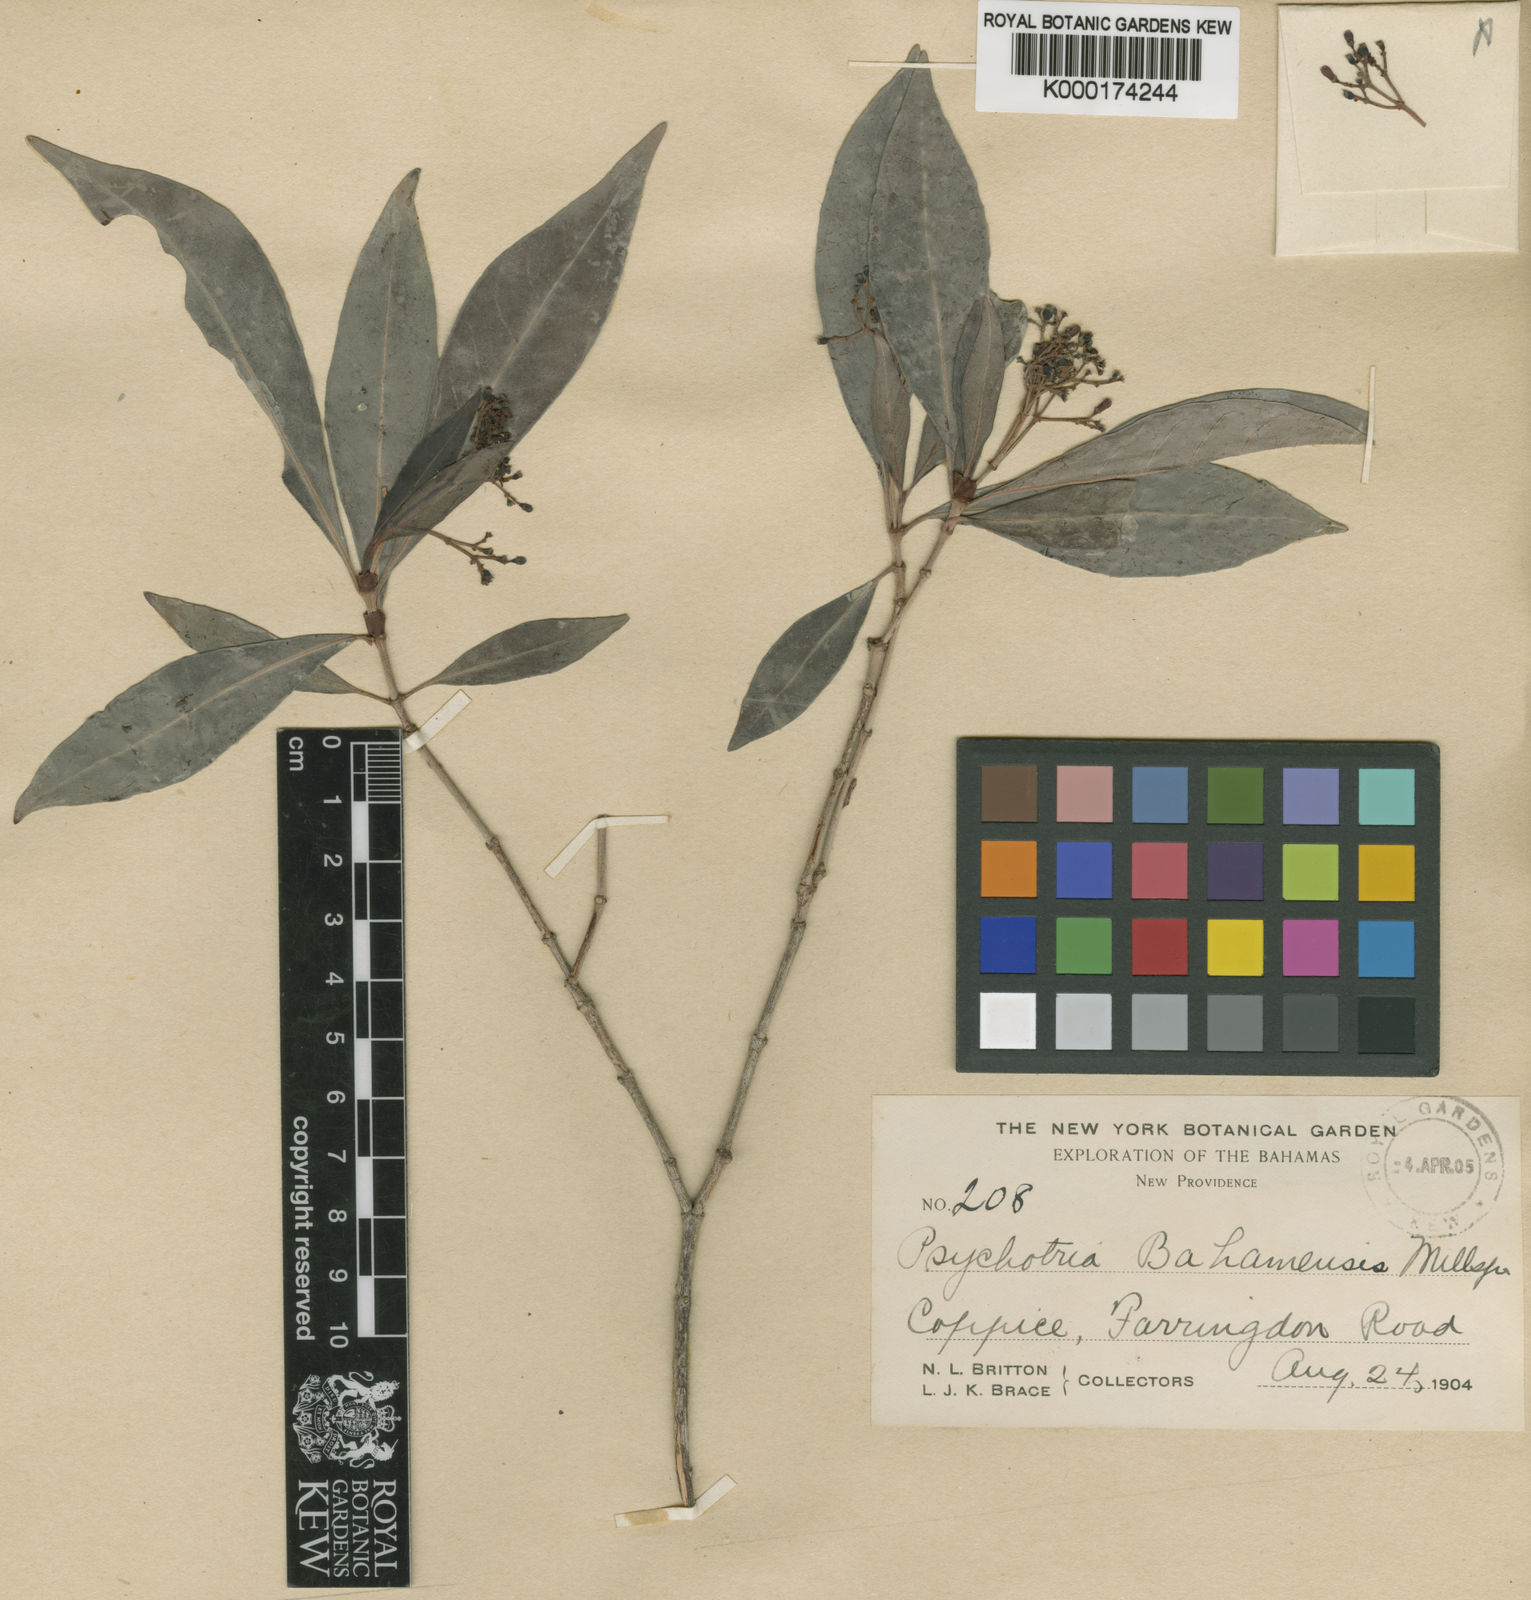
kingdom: Plantae
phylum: Tracheophyta
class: Magnoliopsida
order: Gentianales
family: Rubiaceae
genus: Psychotria
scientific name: Psychotria
